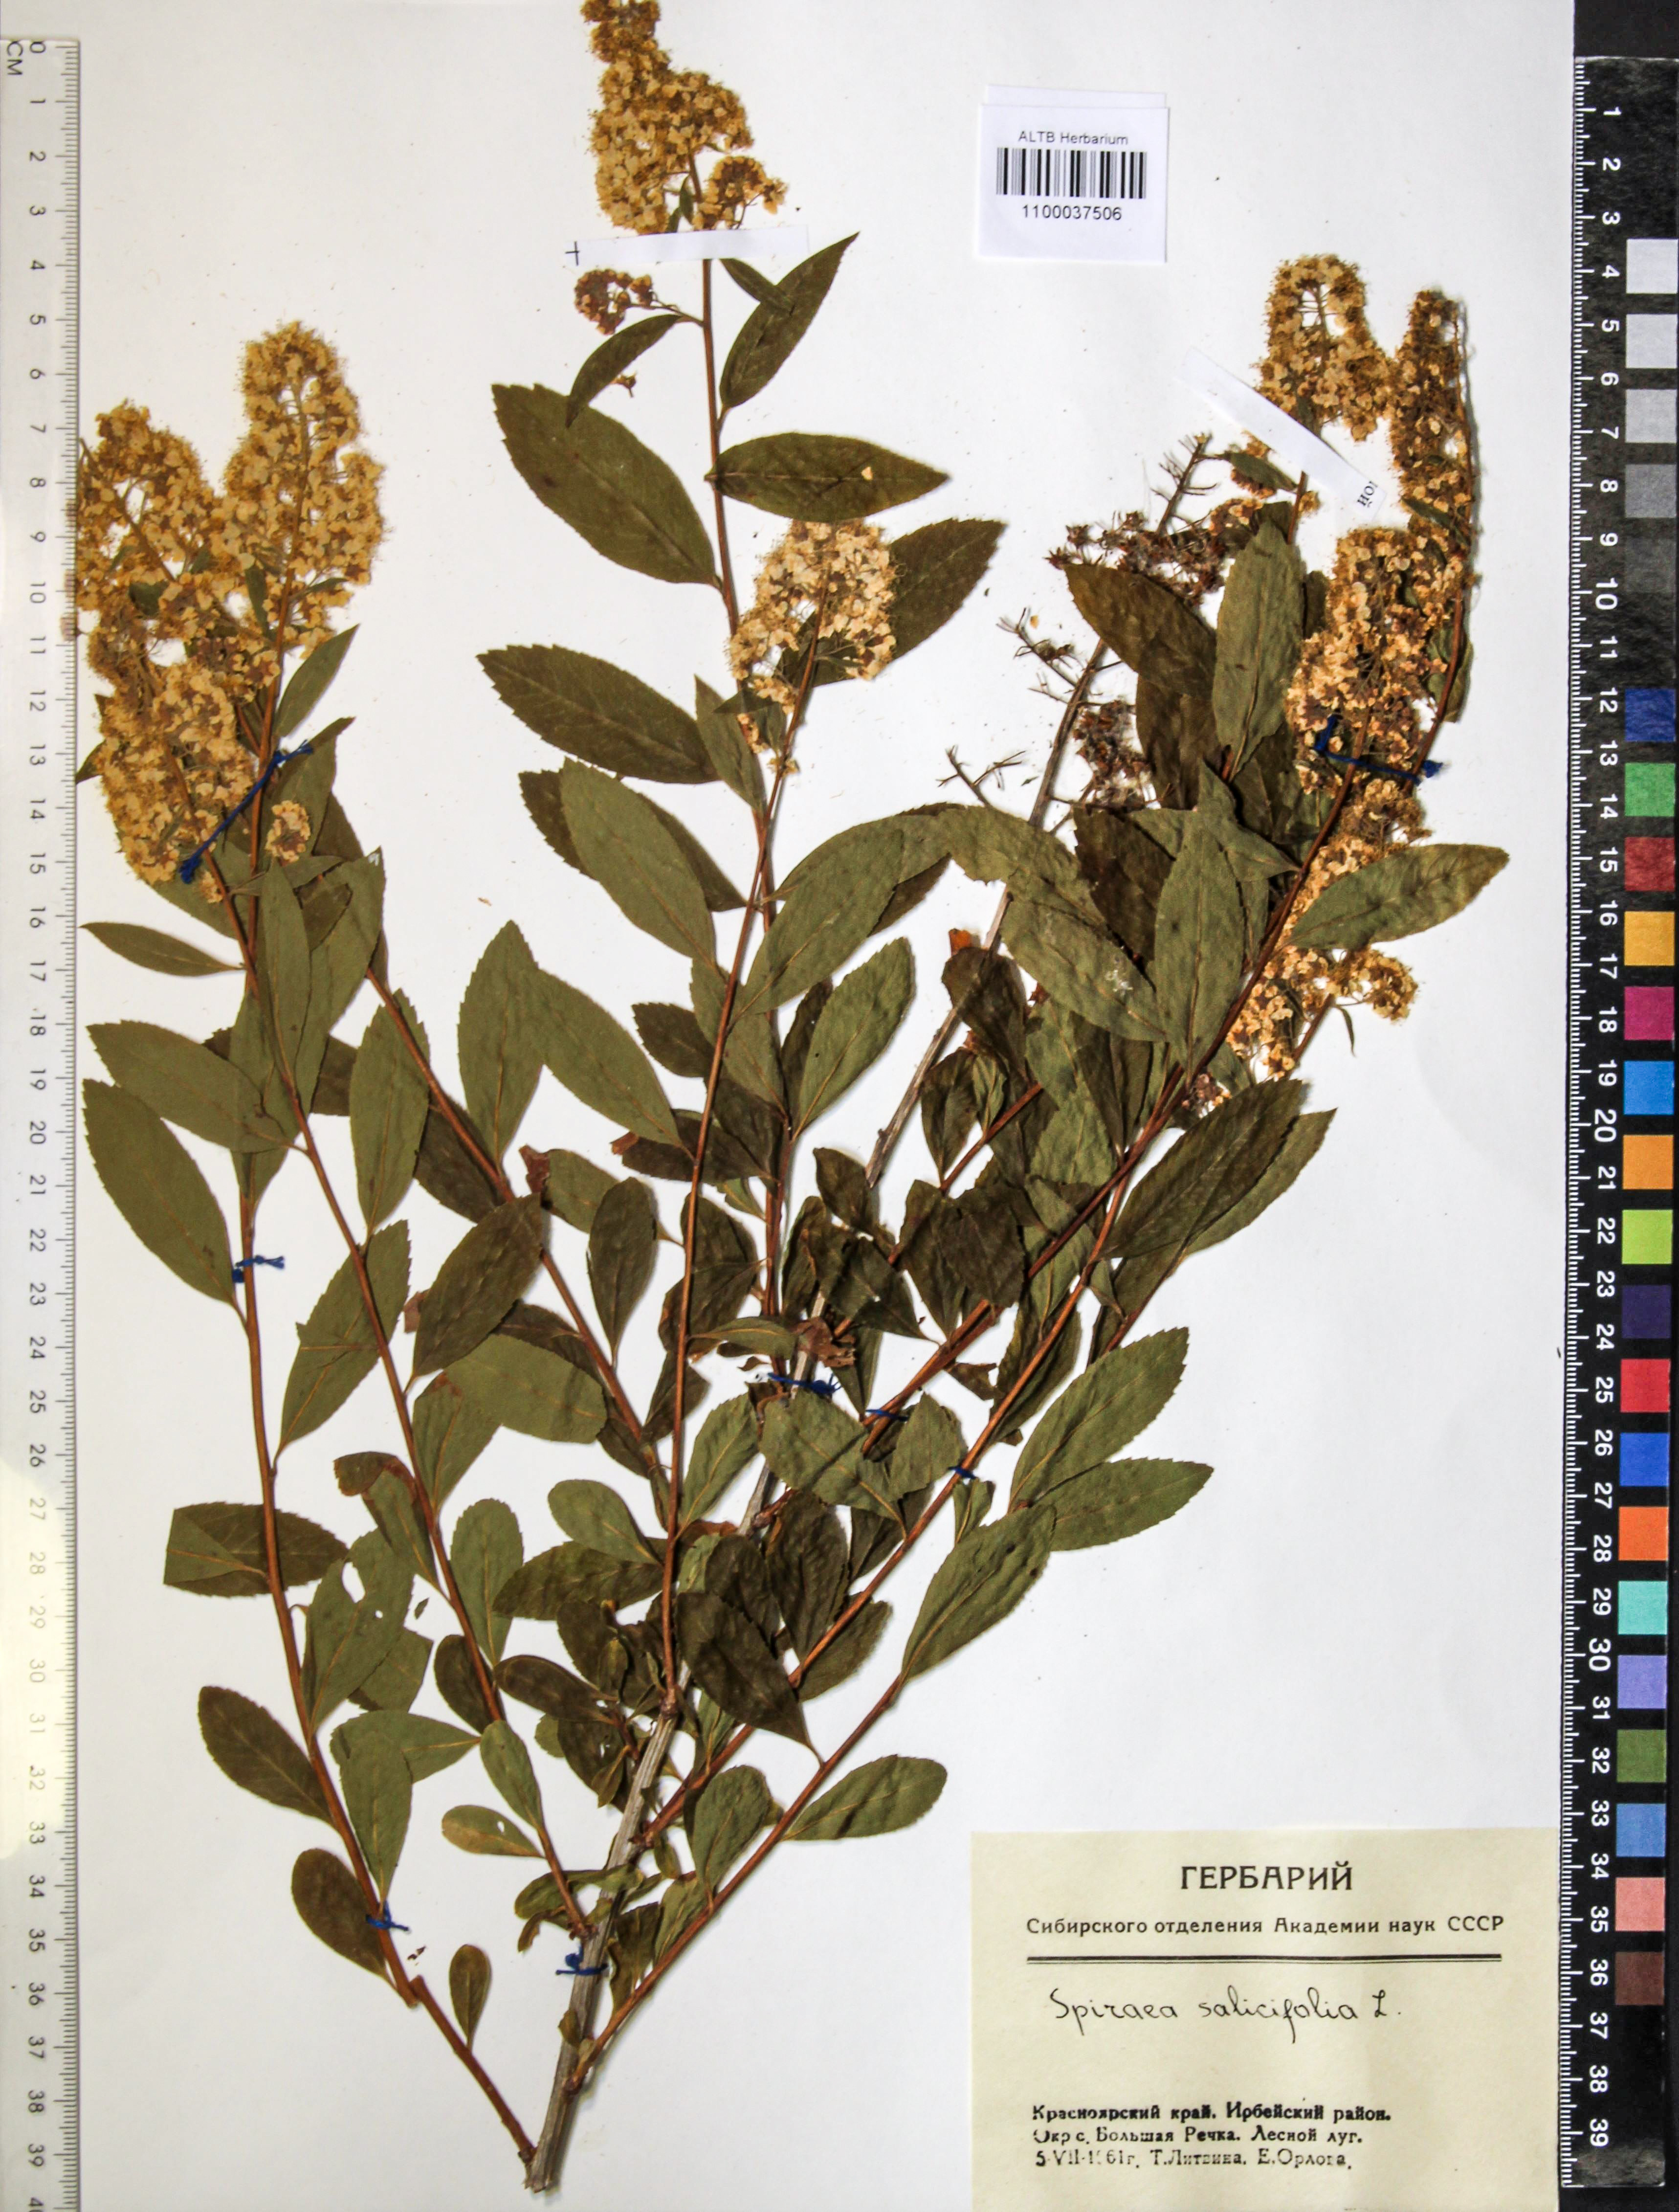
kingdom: Plantae
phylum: Tracheophyta
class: Magnoliopsida
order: Rosales
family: Rosaceae
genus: Spiraea
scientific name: Spiraea salicifolia
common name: Bridewort
